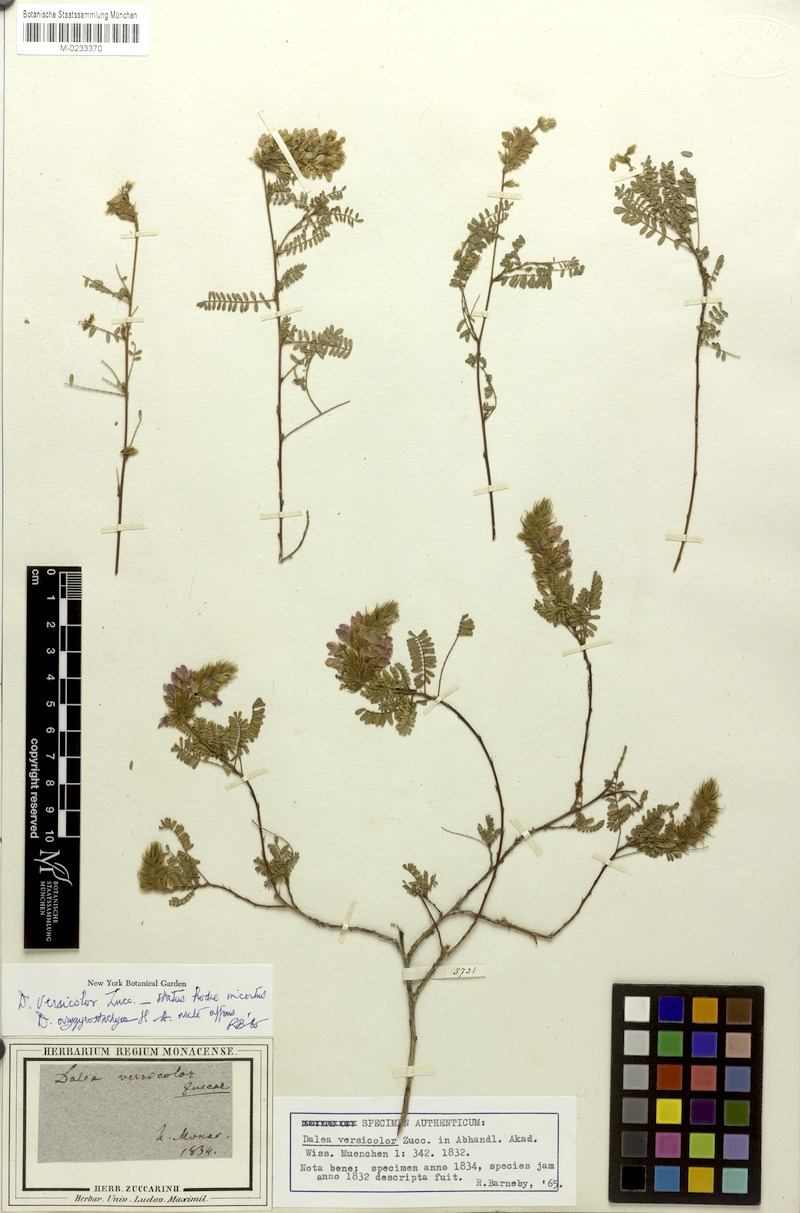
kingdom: Plantae
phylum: Tracheophyta
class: Magnoliopsida
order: Fabales
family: Fabaceae
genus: Dalea
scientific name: Dalea versicolor
